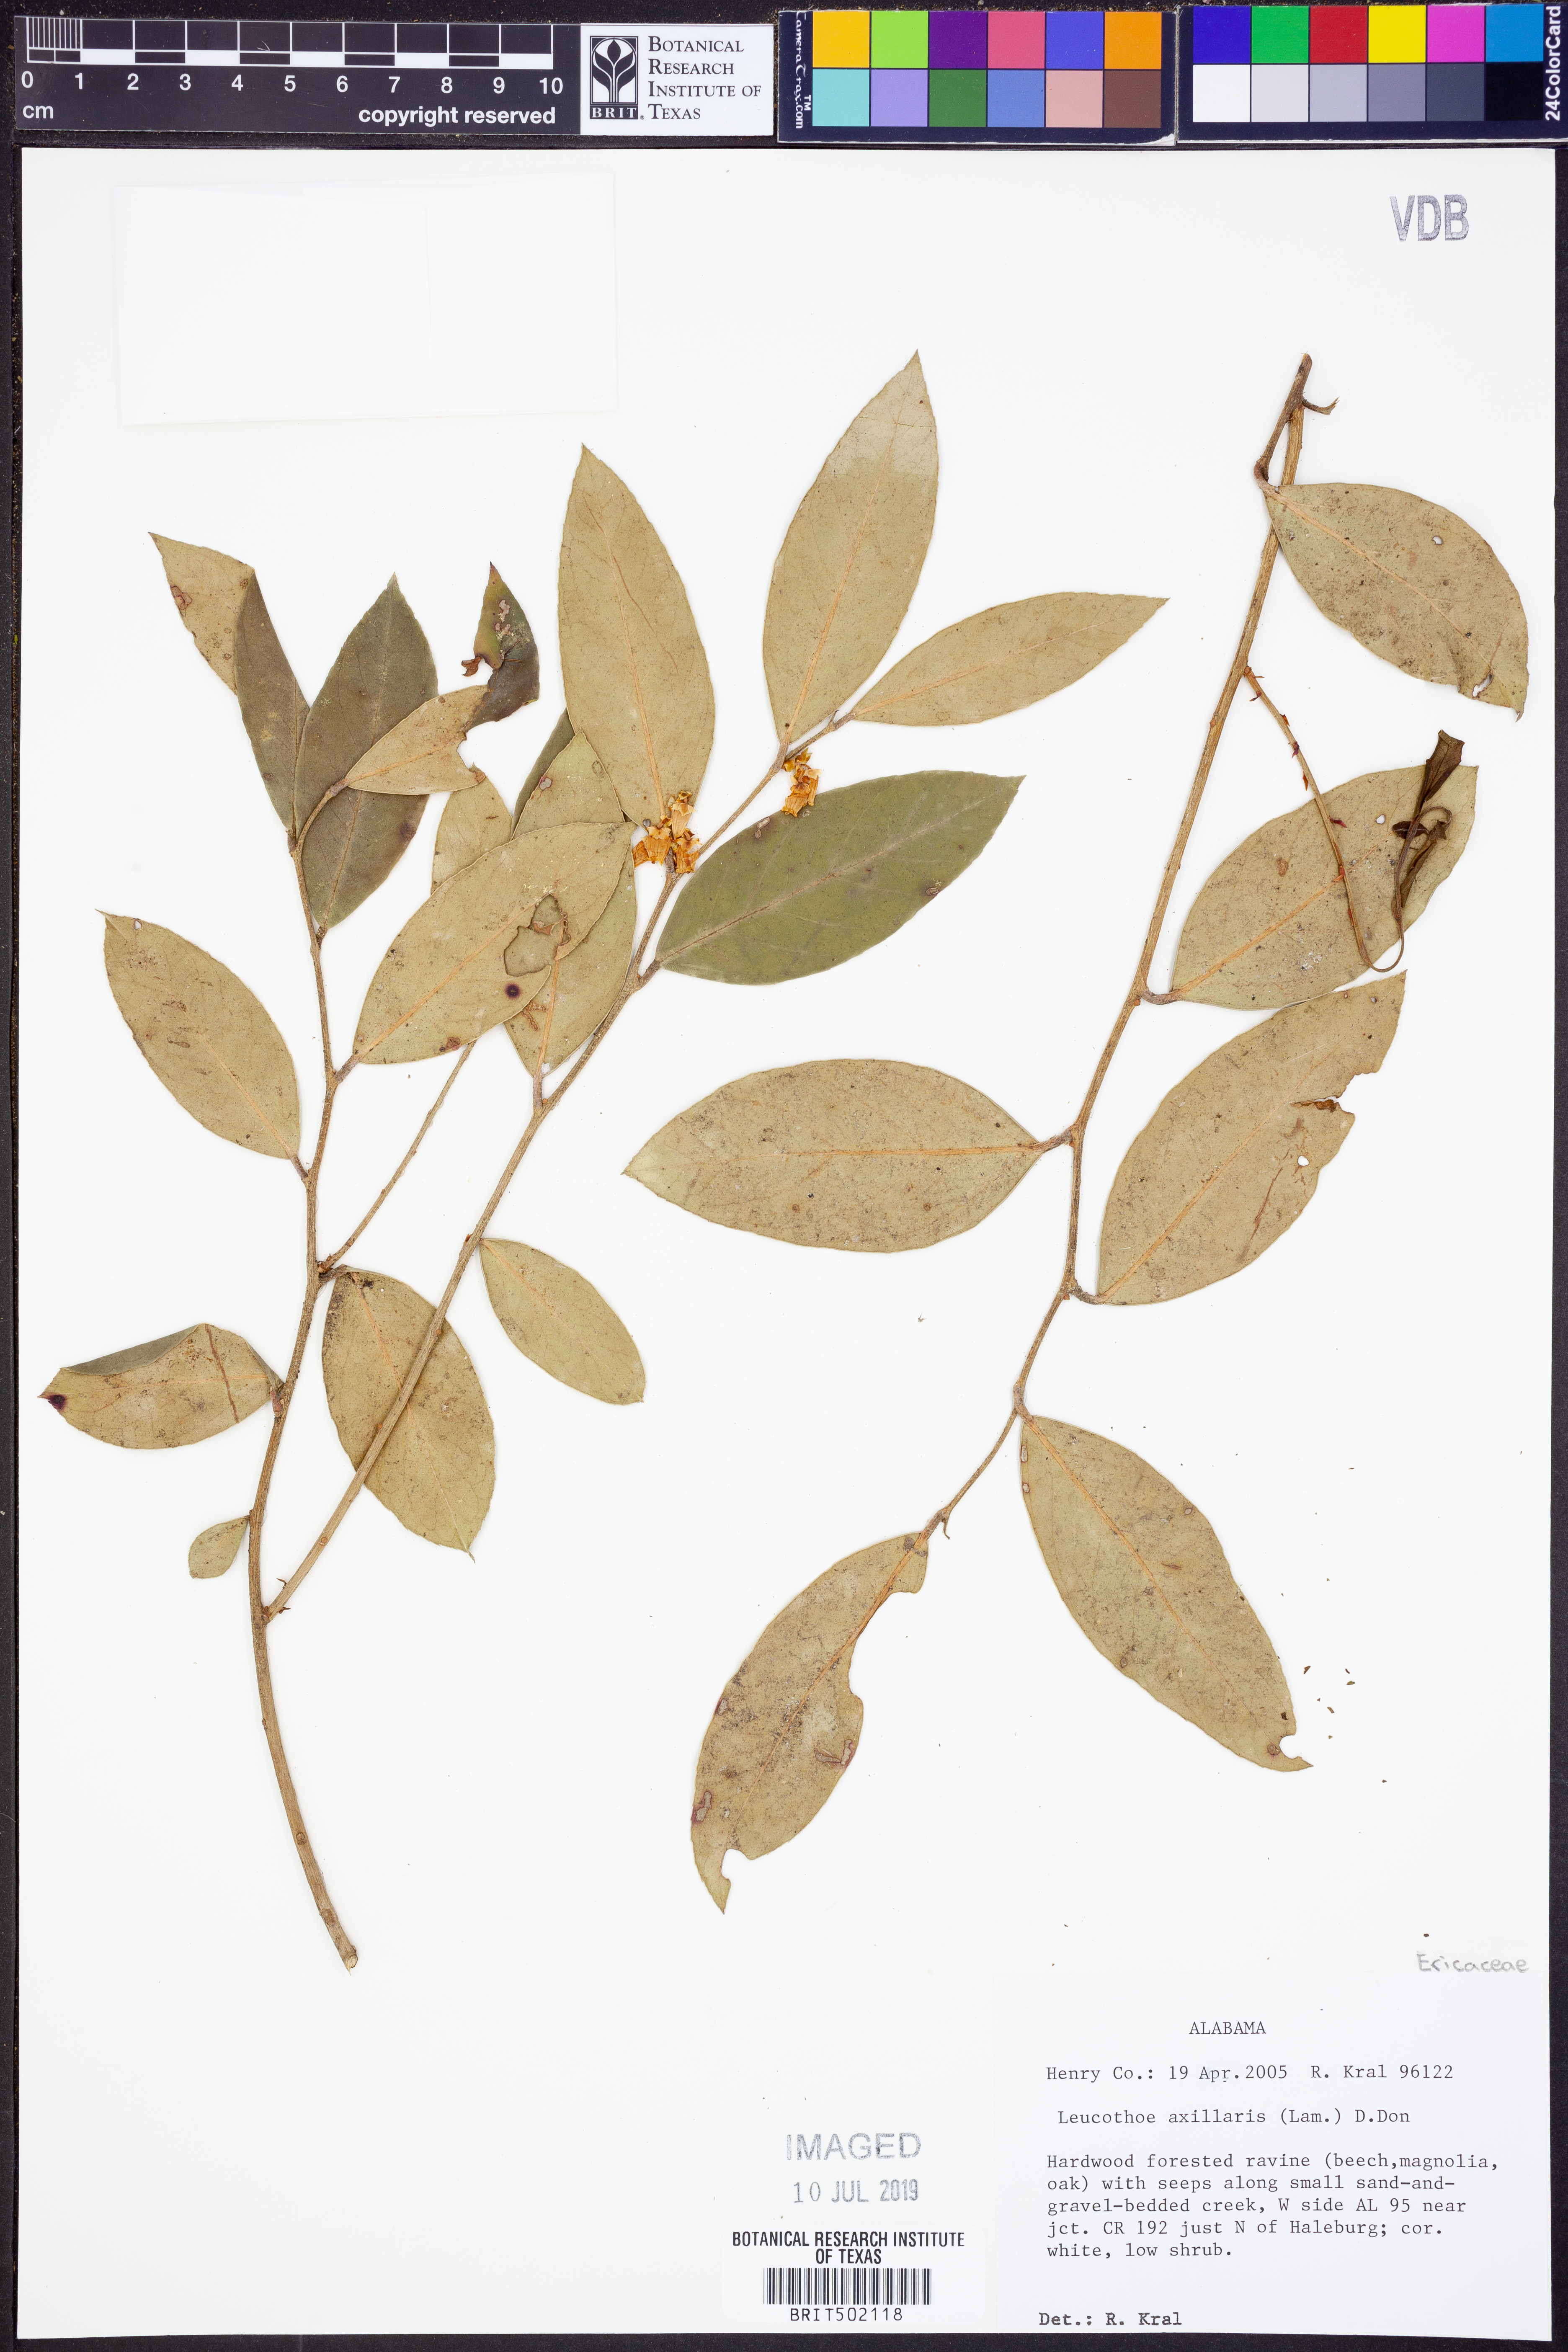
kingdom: Plantae
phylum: Tracheophyta
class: Magnoliopsida
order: Ericales
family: Ericaceae
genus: Leucothoe
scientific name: Leucothoe axillaris
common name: Leucothoe
